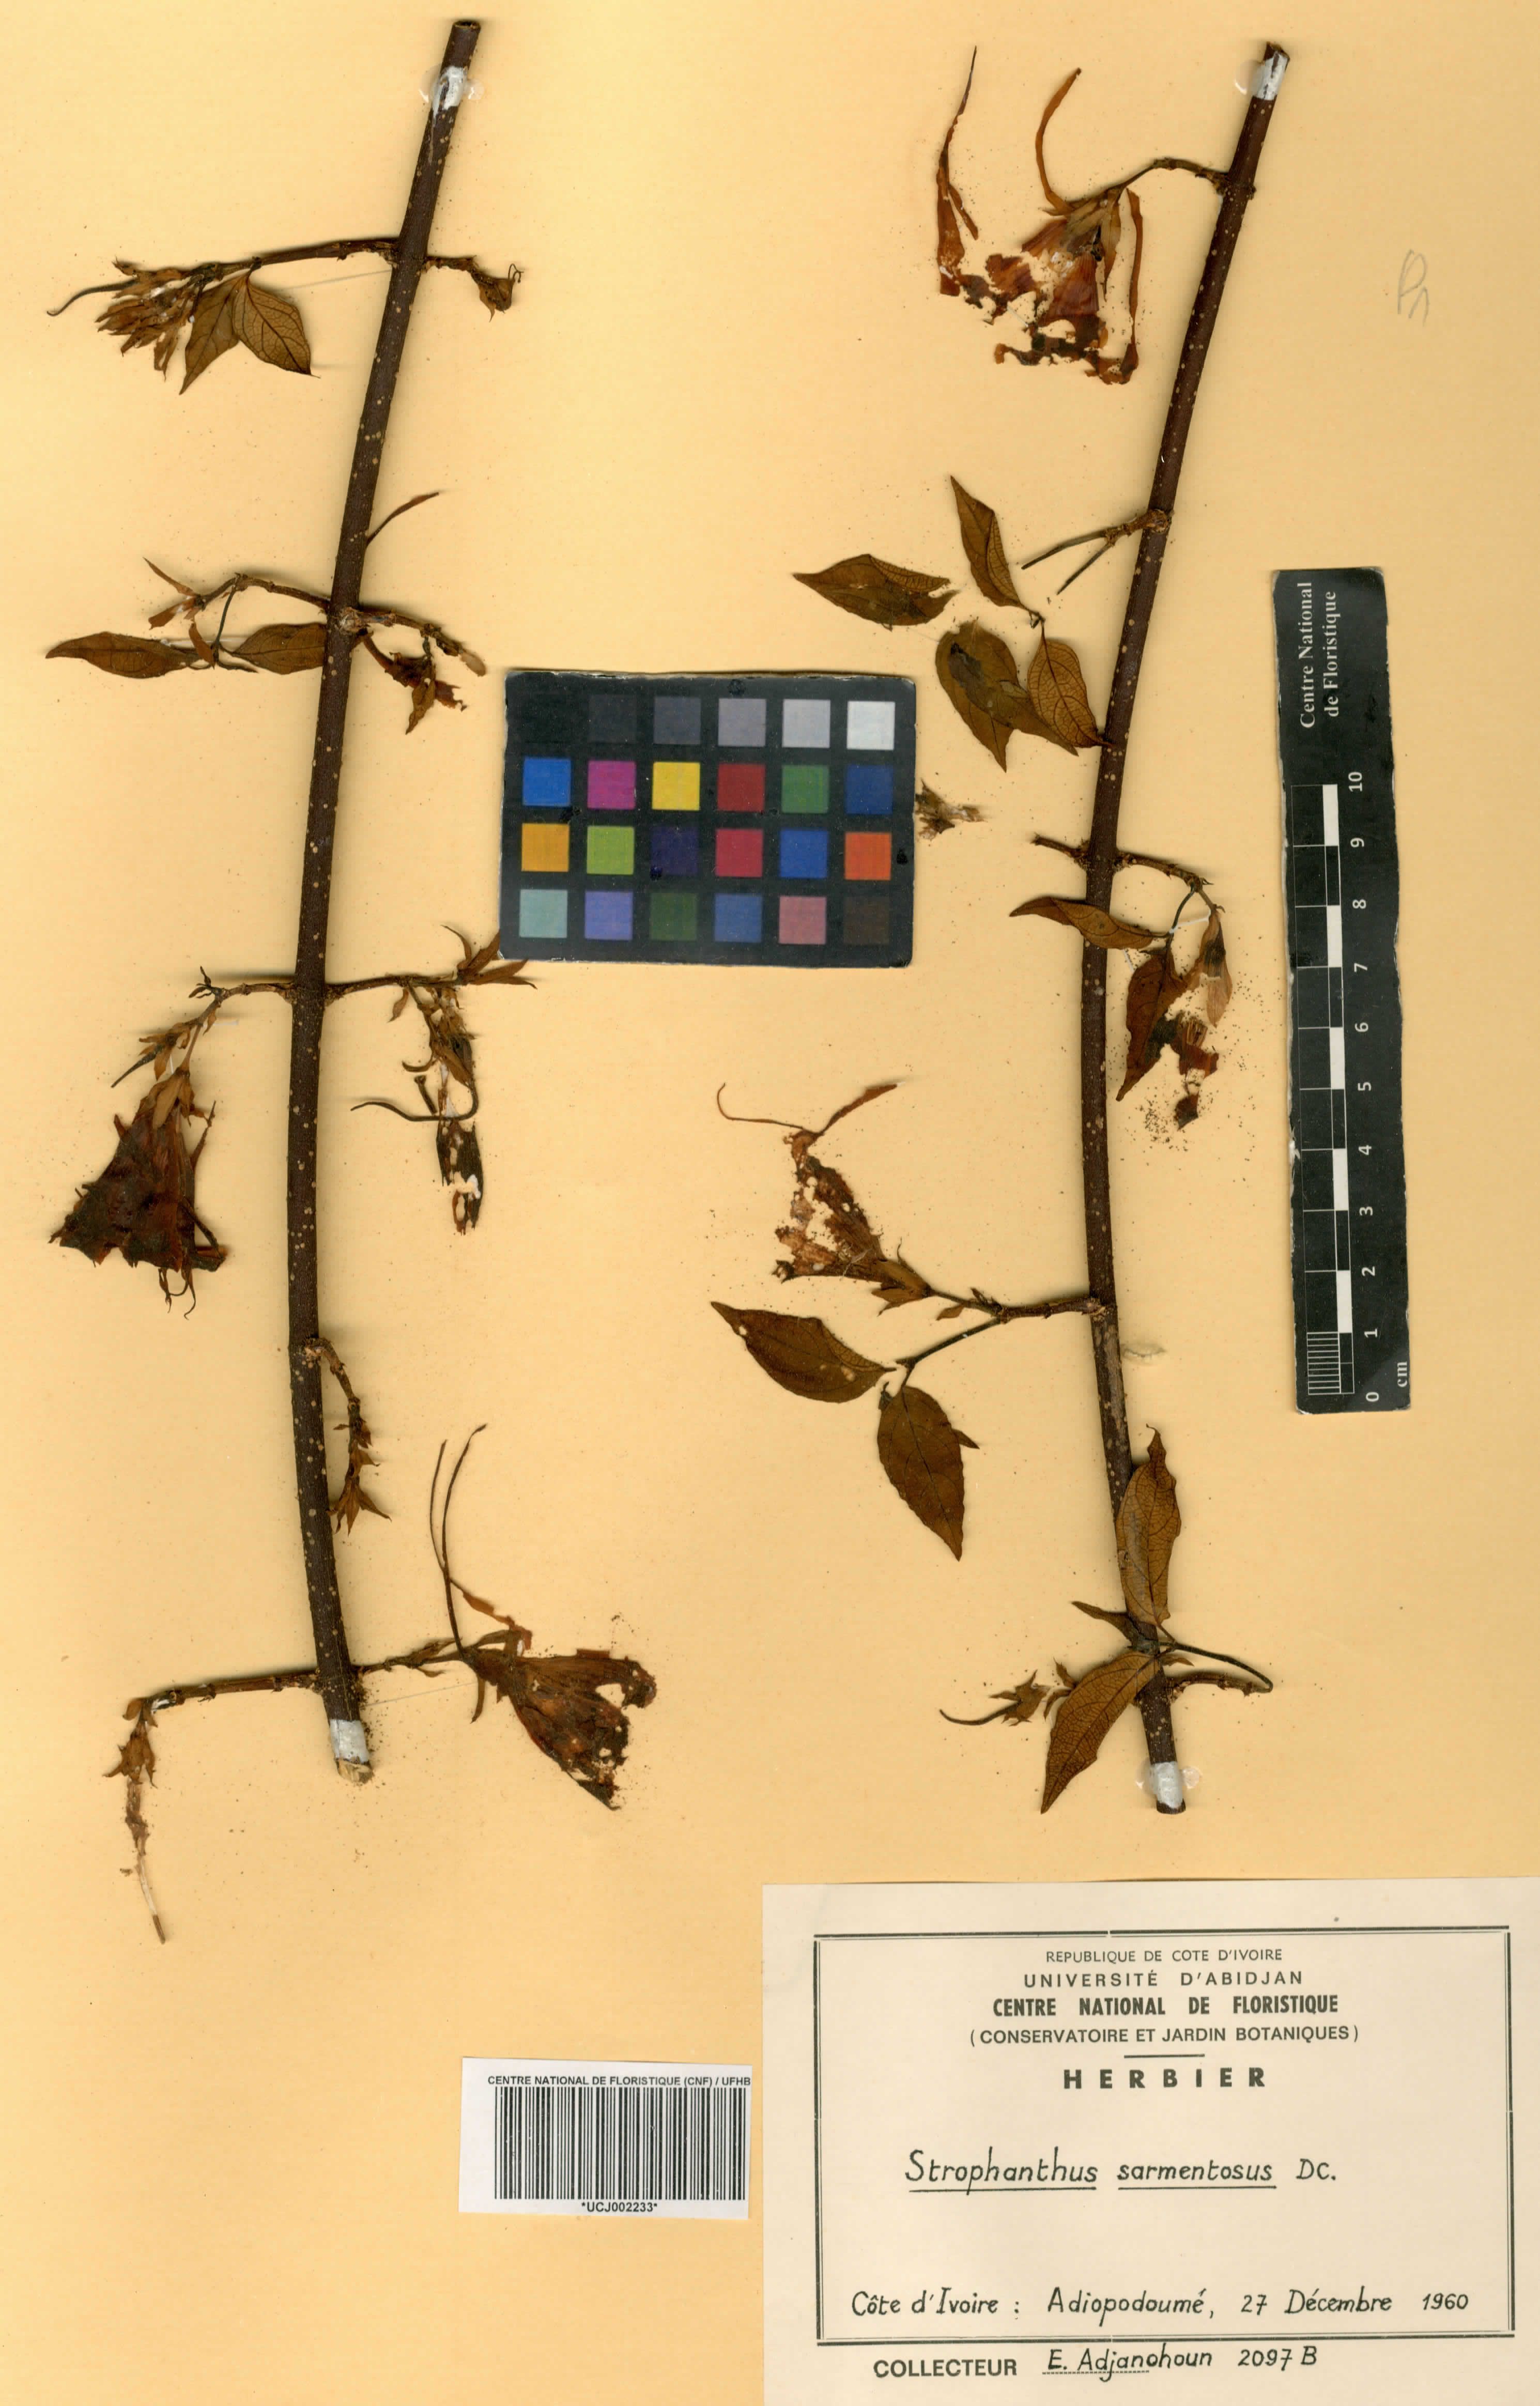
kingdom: Plantae
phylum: Tracheophyta
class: Magnoliopsida
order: Gentianales
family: Apocynaceae
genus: Strophanthus
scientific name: Strophanthus sarmentosus
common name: Poison arrowvine
